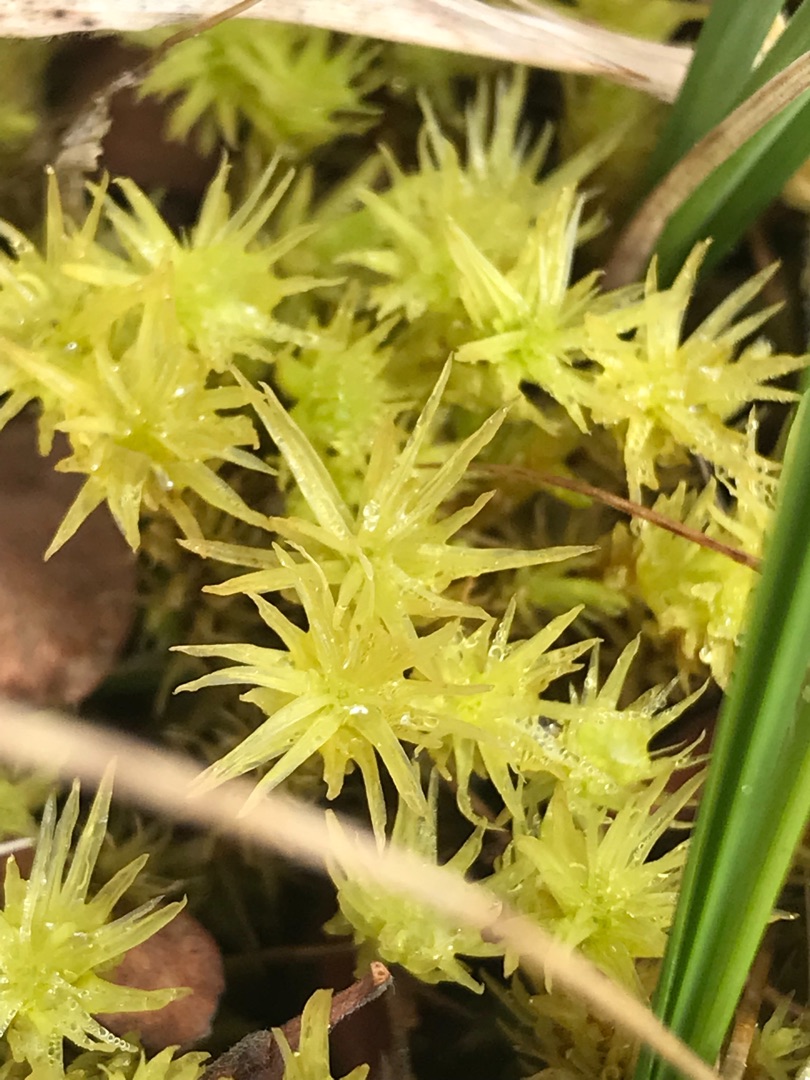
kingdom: Plantae
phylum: Bryophyta
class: Bryopsida
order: Aulacomniales
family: Aulacomniaceae
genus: Aulacomnium
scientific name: Aulacomnium palustre
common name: Almindelig filtmos
